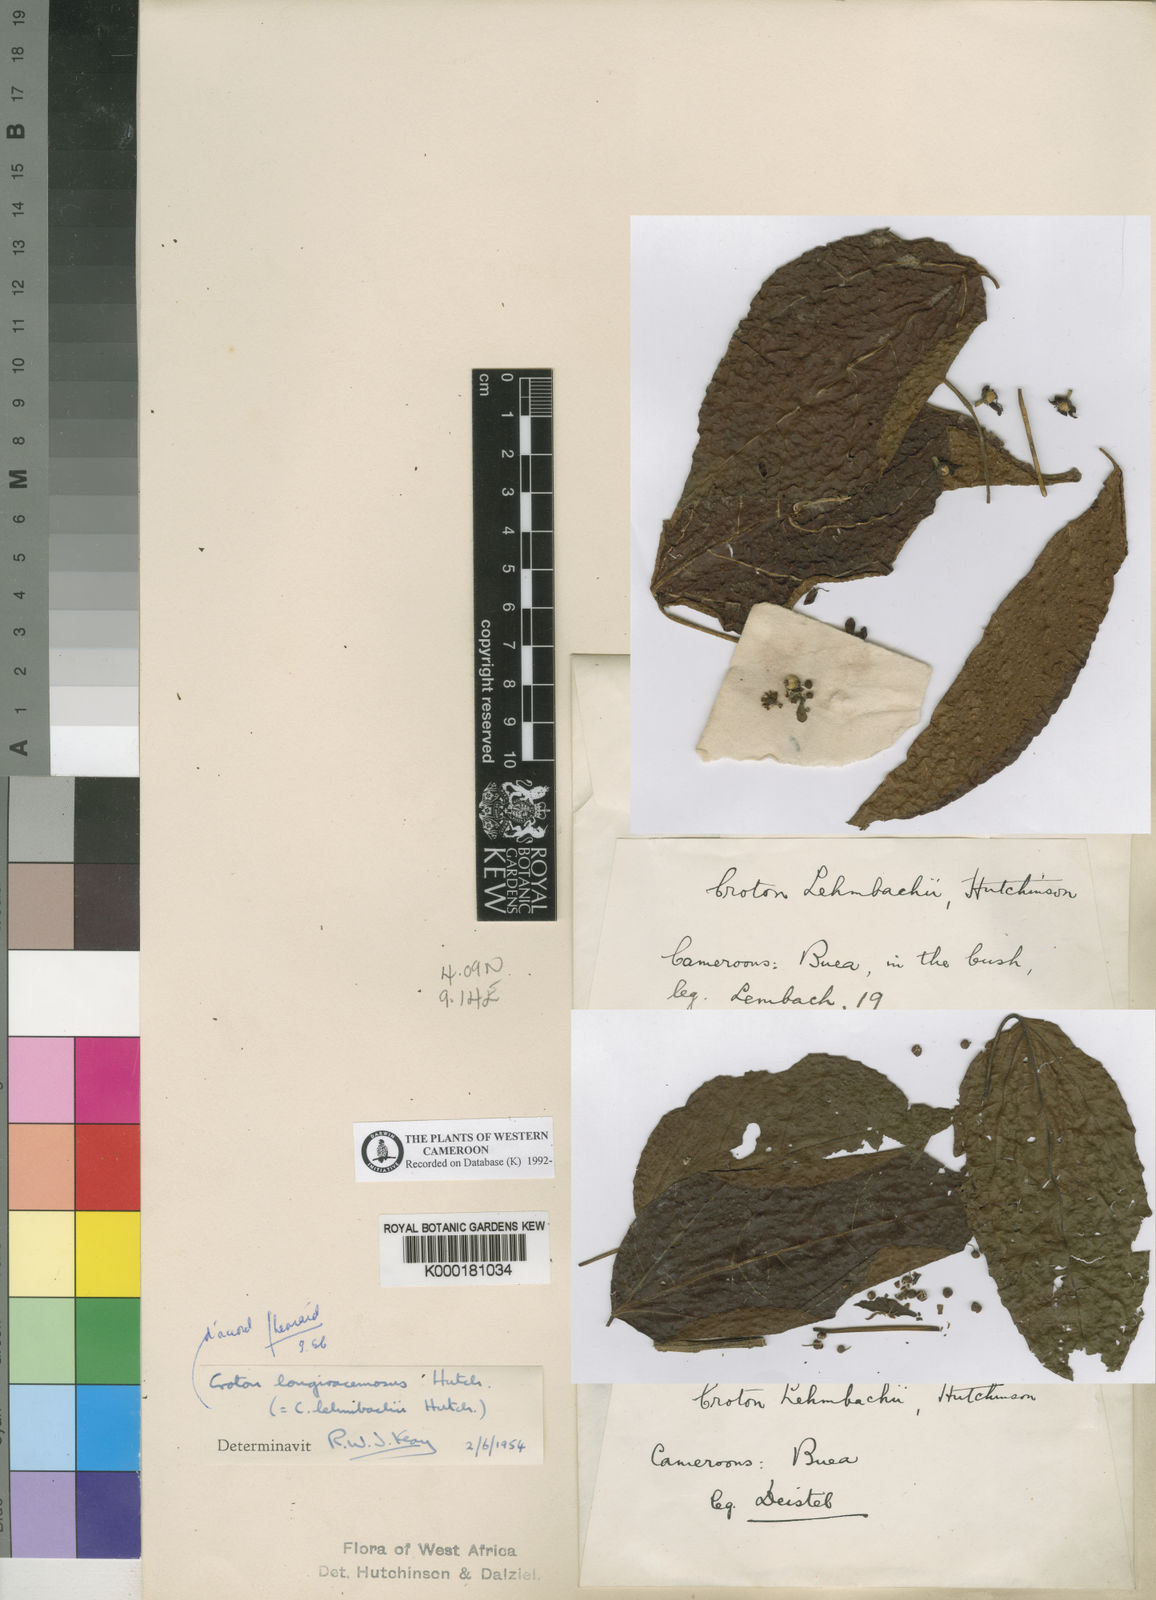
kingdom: Plantae
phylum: Tracheophyta
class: Magnoliopsida
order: Malpighiales
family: Euphorbiaceae
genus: Croton
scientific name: Croton longiracemosus
